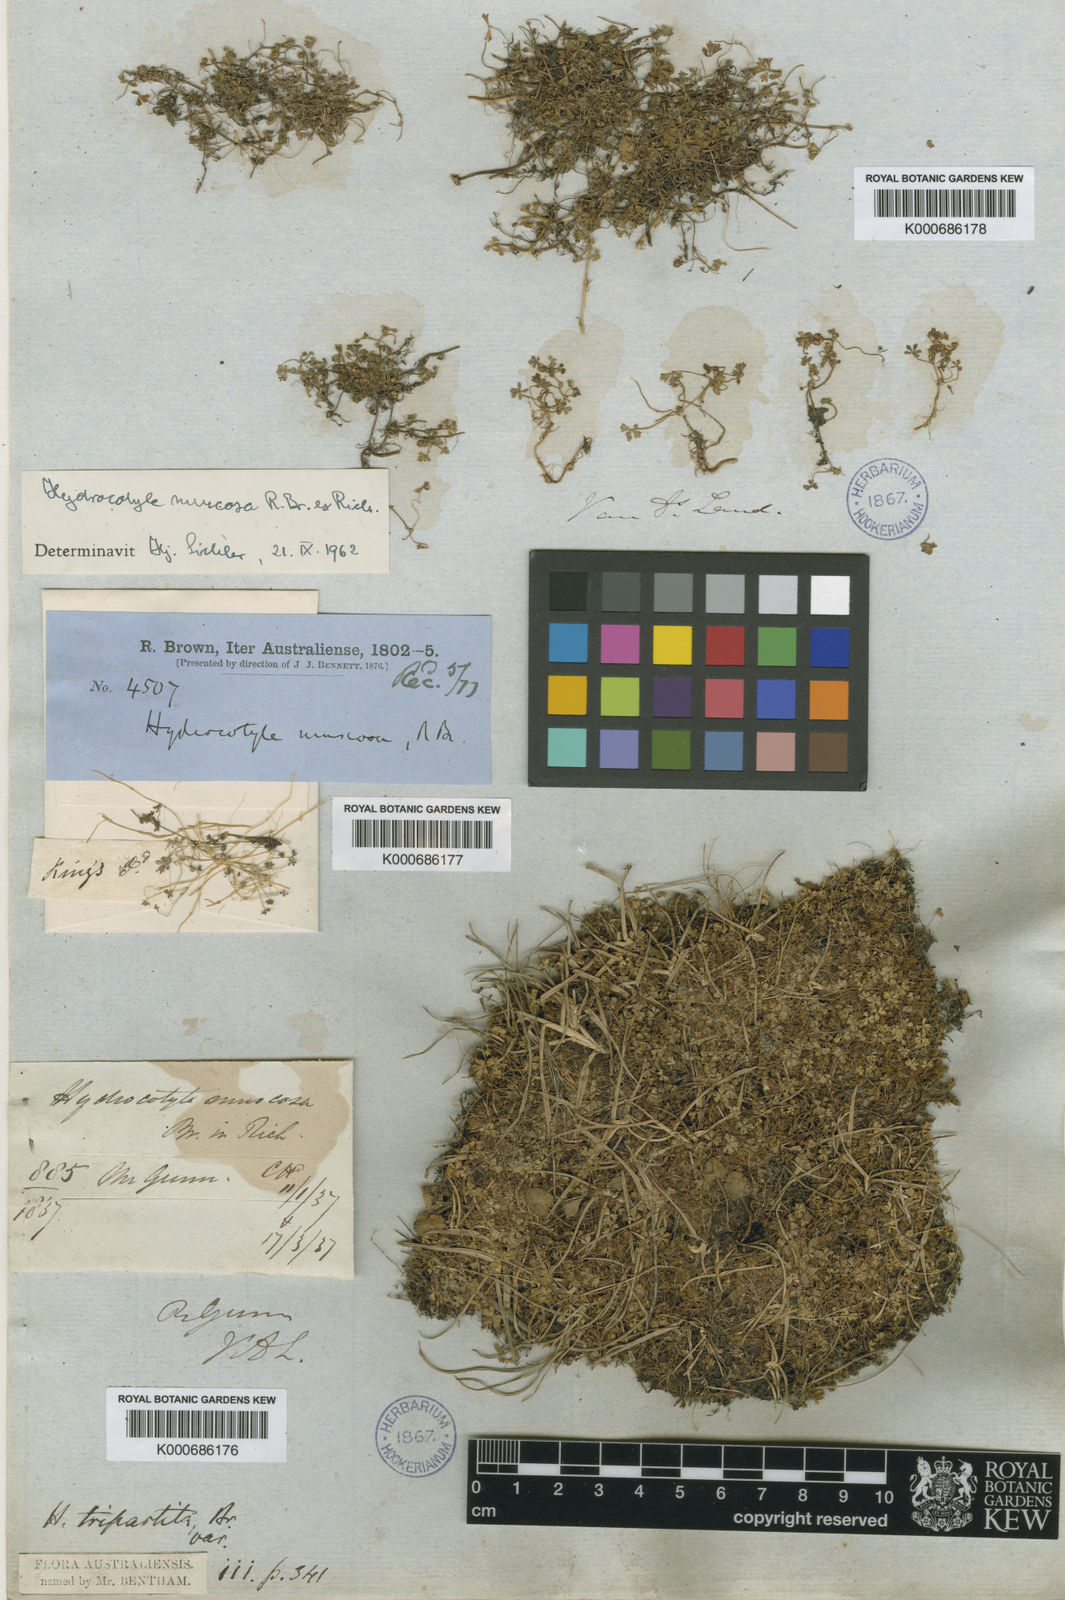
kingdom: Plantae
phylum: Tracheophyta
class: Magnoliopsida
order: Apiales
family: Araliaceae
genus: Hydrocotyle
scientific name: Hydrocotyle tripartita
